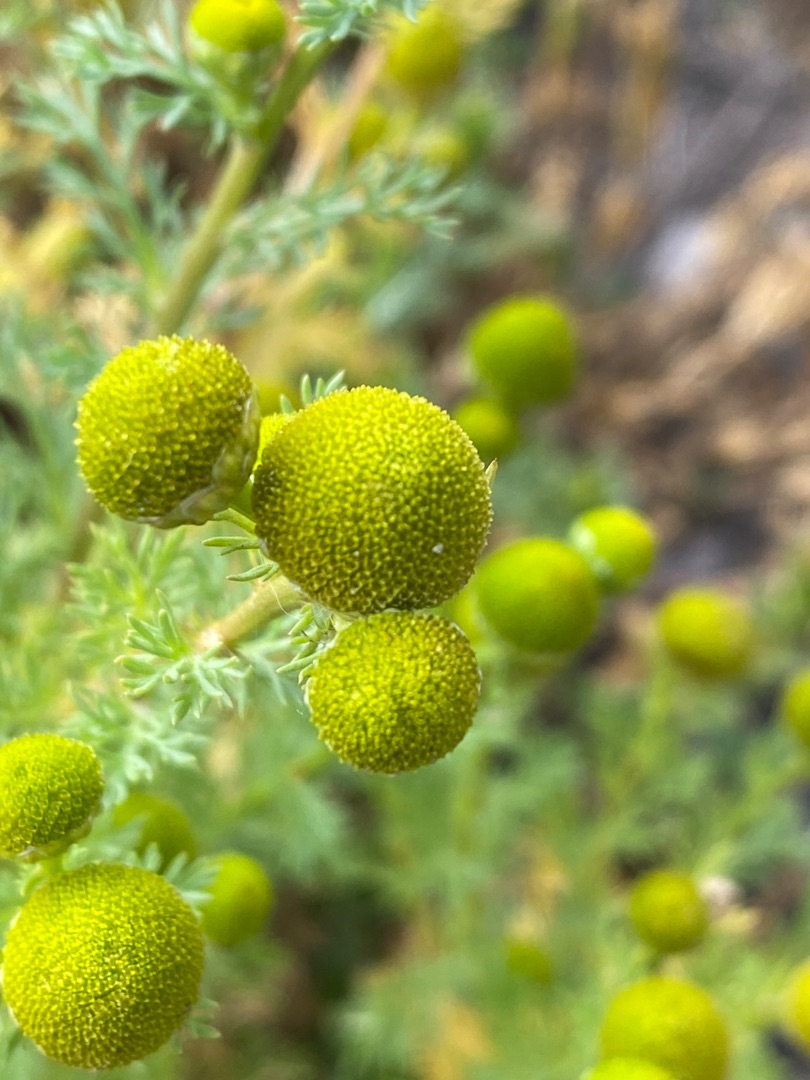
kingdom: Plantae
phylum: Tracheophyta
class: Magnoliopsida
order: Asterales
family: Asteraceae
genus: Matricaria
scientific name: Matricaria discoidea
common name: Skive-kamille
